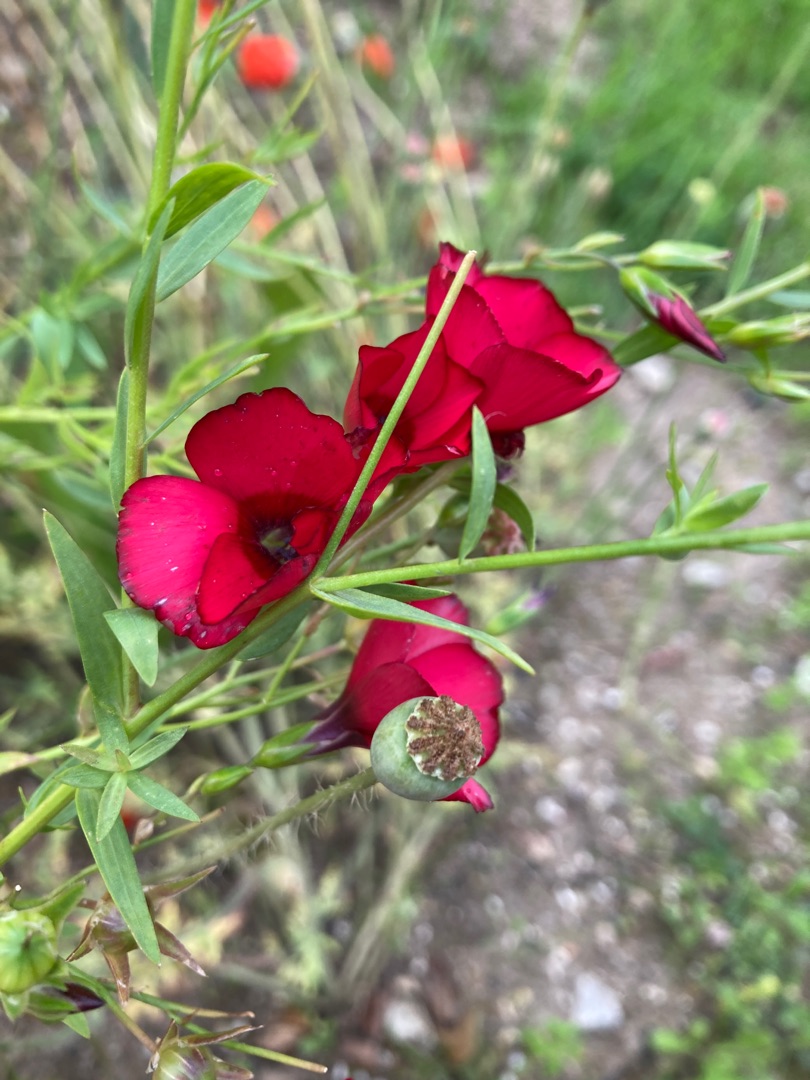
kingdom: Plantae
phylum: Tracheophyta
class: Magnoliopsida
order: Malpighiales
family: Linaceae
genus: Linum
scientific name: Linum grandiflorum
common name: Rød hør
